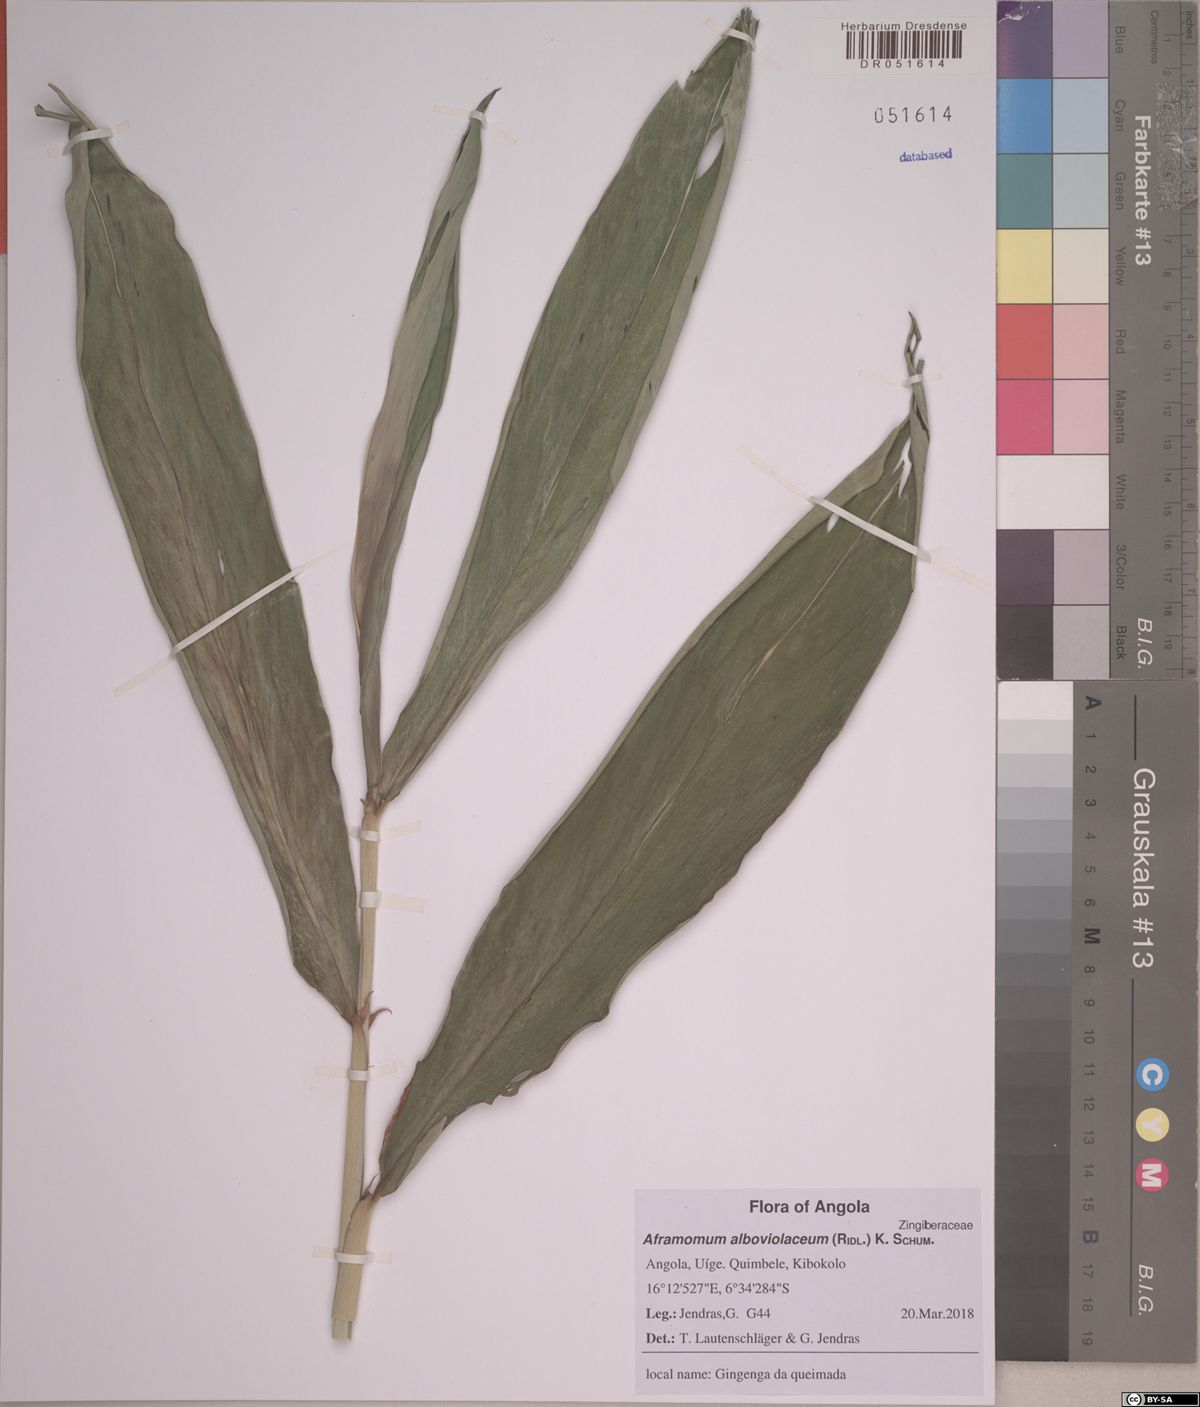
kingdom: Plantae
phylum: Tracheophyta
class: Liliopsida
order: Zingiberales
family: Zingiberaceae
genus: Aframomum
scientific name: Aframomum alboviolaceum
